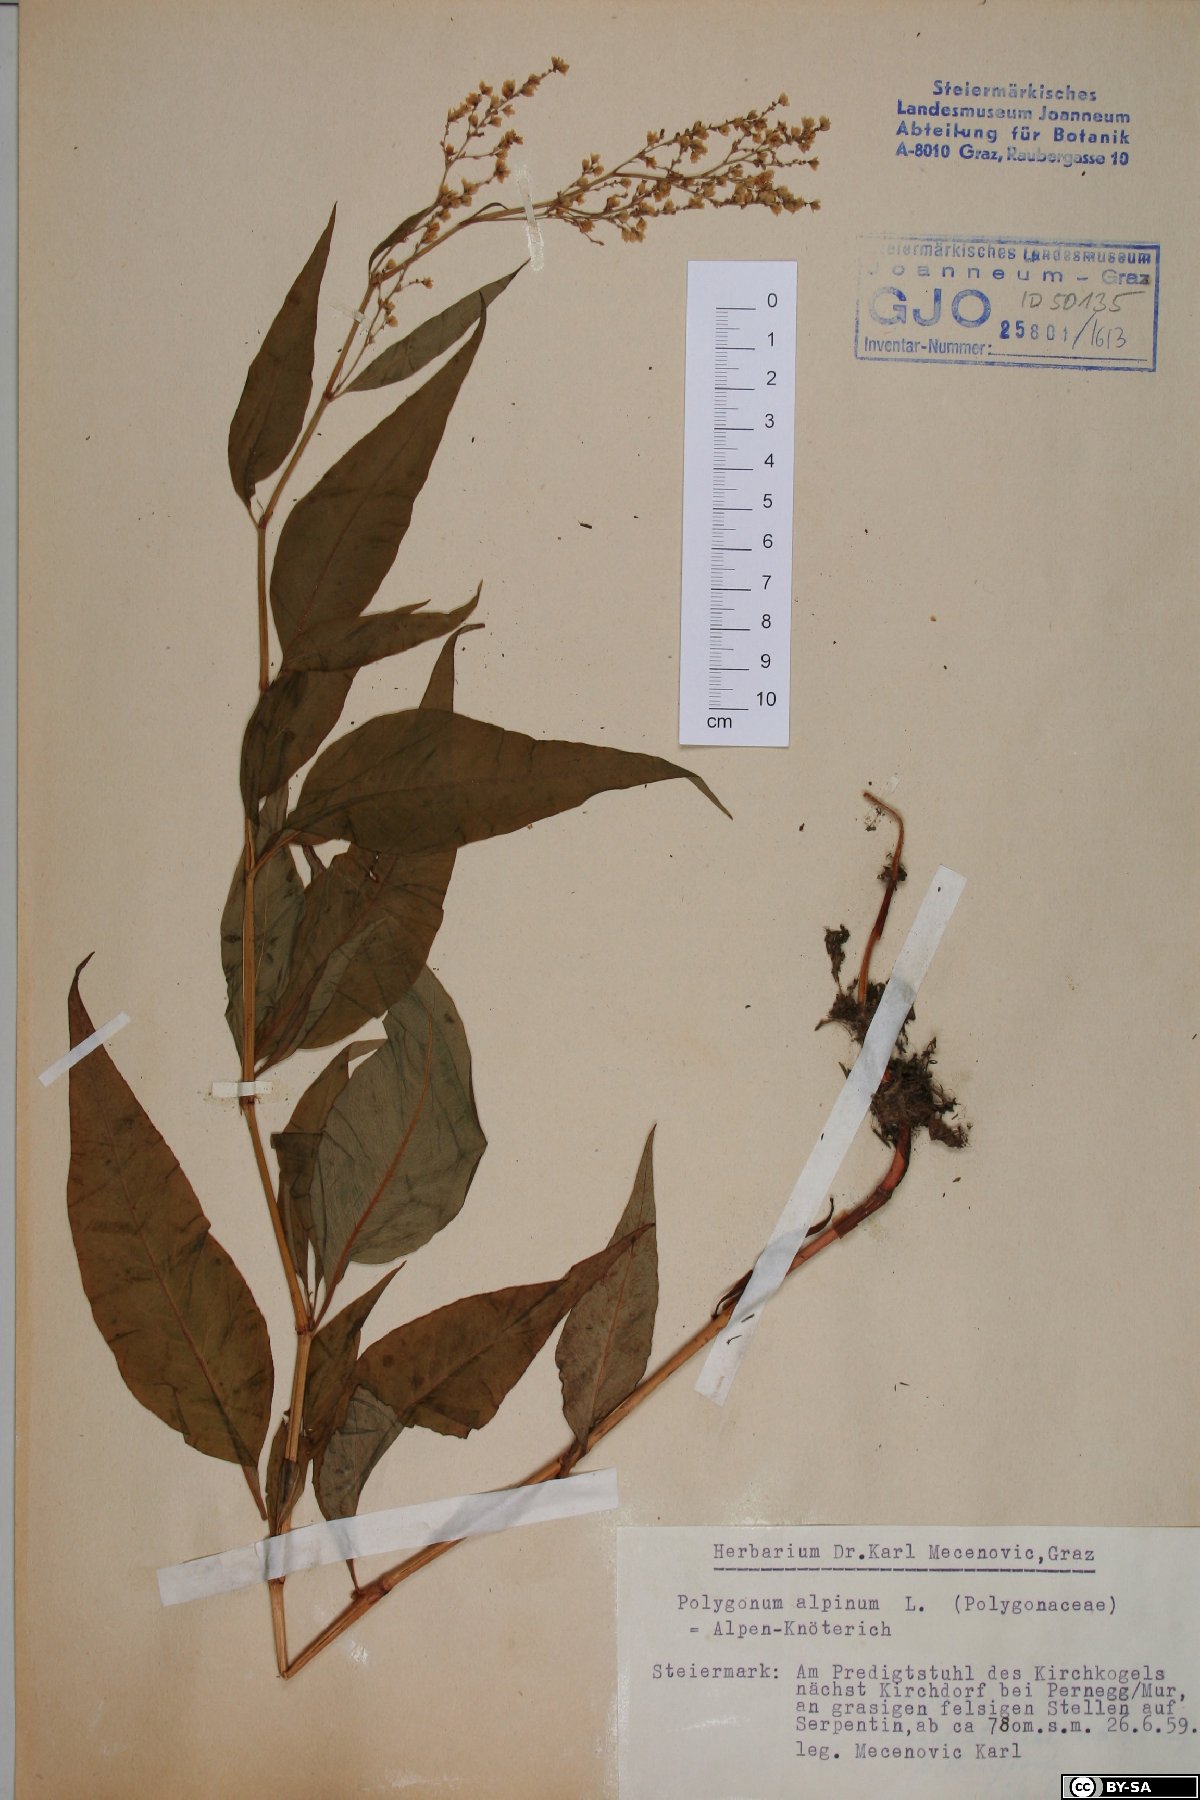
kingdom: Plantae
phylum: Tracheophyta
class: Magnoliopsida
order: Caryophyllales
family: Polygonaceae
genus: Koenigia
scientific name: Koenigia alpina
